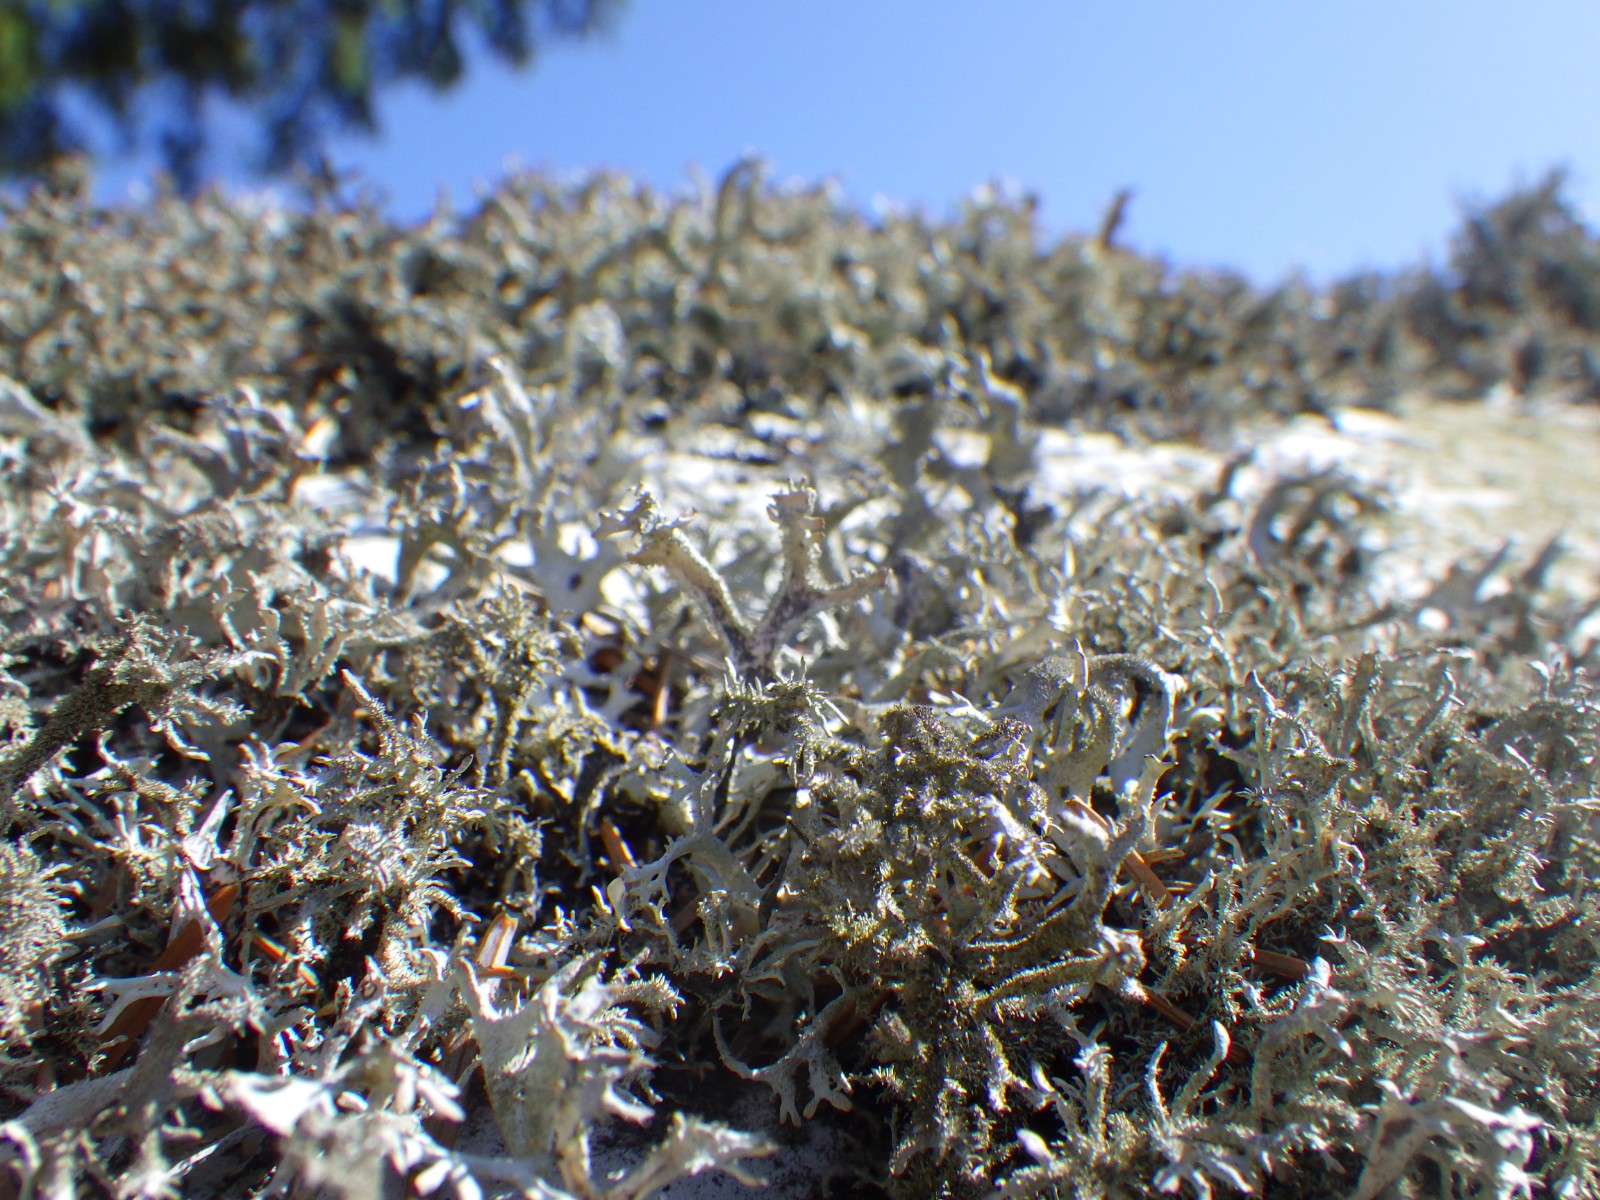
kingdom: Fungi
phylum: Ascomycota
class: Lecanoromycetes
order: Lecanorales
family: Parmeliaceae
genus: Pseudevernia
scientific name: Pseudevernia furfuracea
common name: grå fyrrelav
